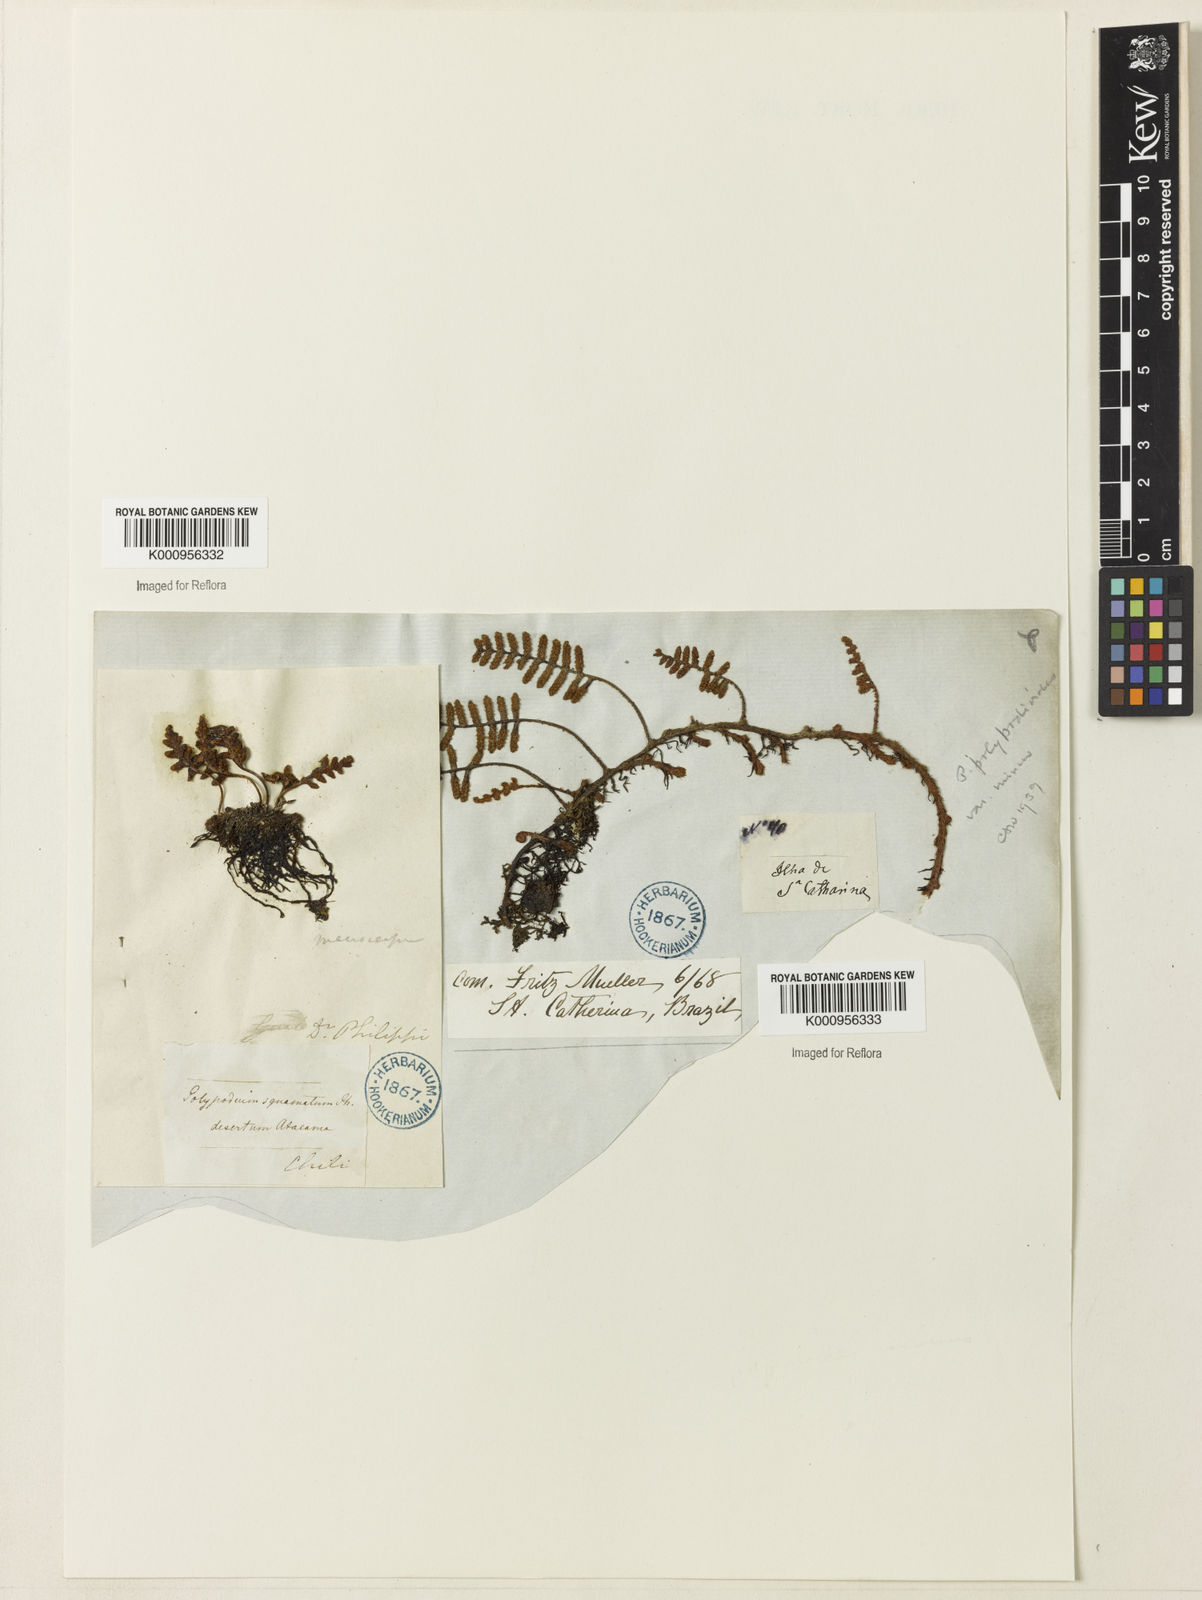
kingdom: Plantae
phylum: Tracheophyta
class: Polypodiopsida
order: Polypodiales
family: Polypodiaceae
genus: Pleopeltis
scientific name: Pleopeltis polypodioides
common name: Resurrection fern
